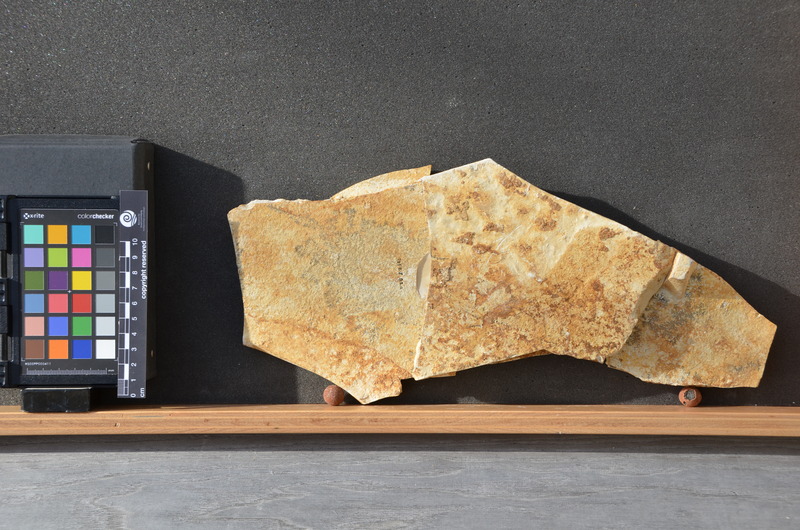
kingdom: Animalia
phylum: Chordata
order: Amiiformes
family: Amiidae
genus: Amiopsis
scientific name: Amiopsis lepidota
